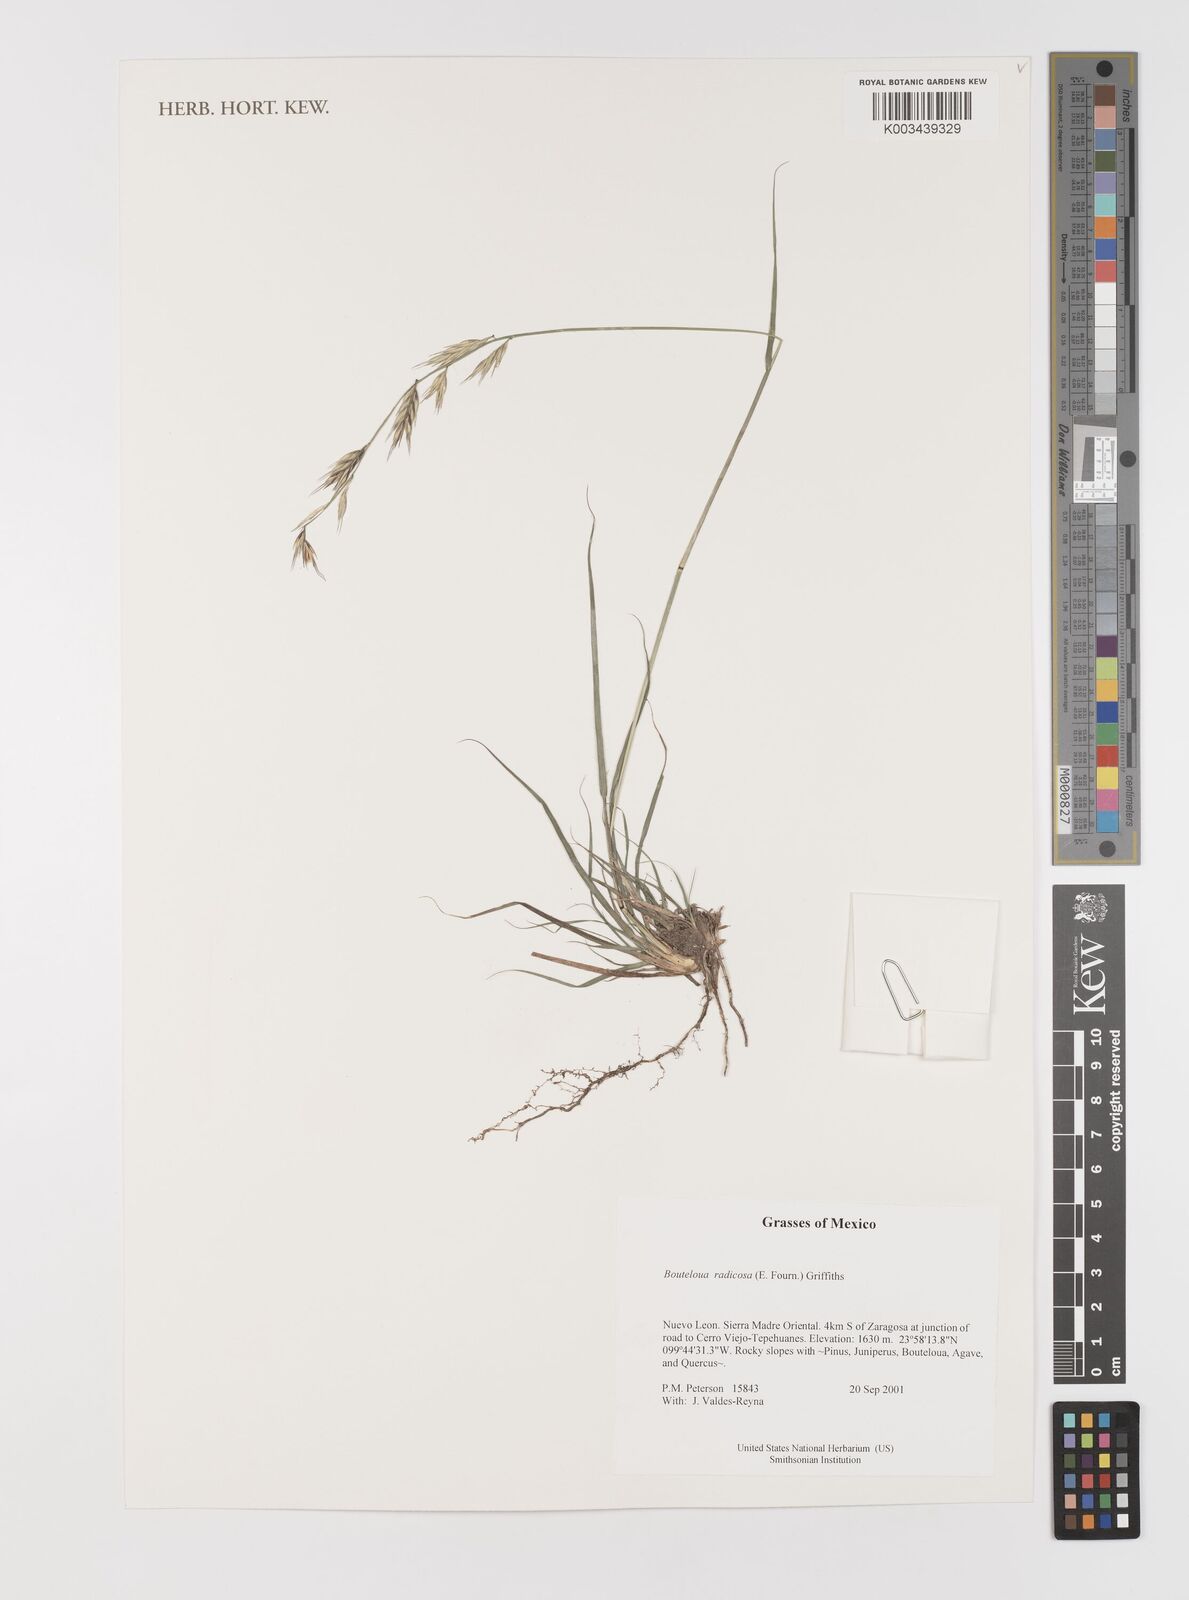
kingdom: Plantae
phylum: Tracheophyta
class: Liliopsida
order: Poales
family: Poaceae
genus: Bouteloua
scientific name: Bouteloua radicosa
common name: Purple grama
